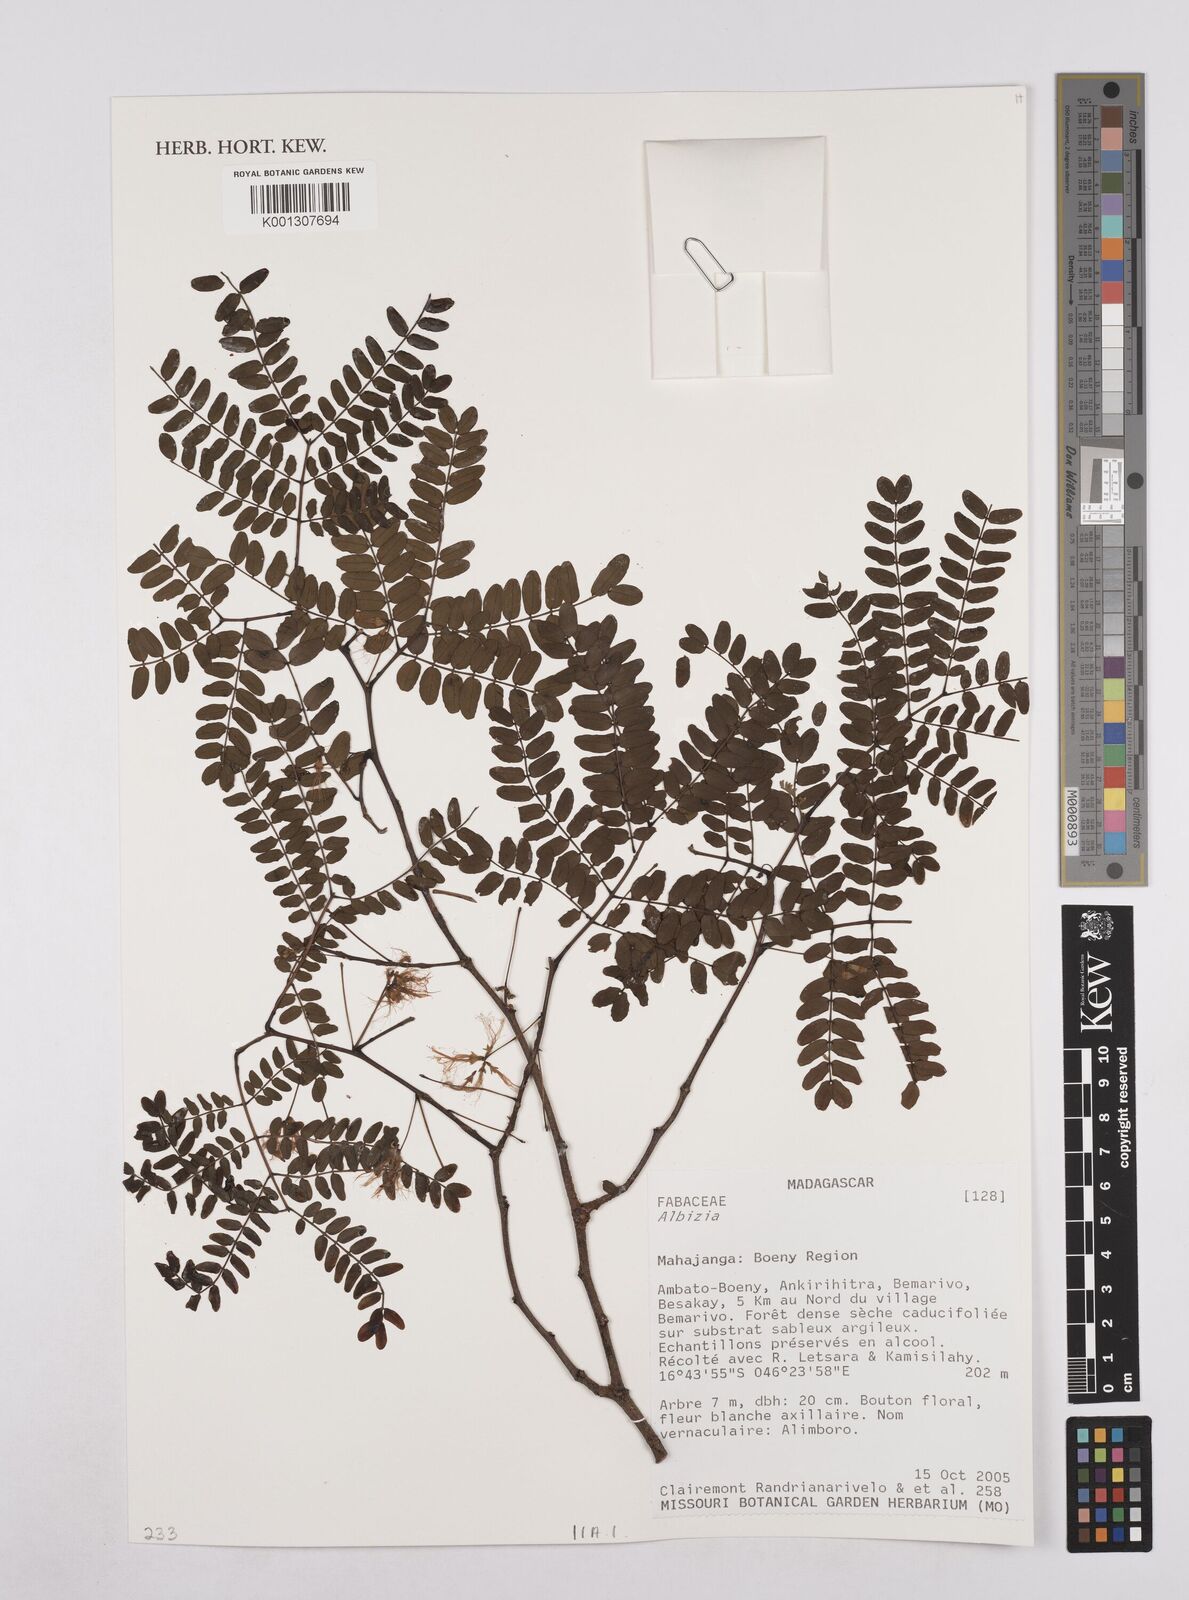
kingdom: Plantae
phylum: Tracheophyta
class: Magnoliopsida
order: Fabales
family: Fabaceae
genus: Albizia
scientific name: Albizia
